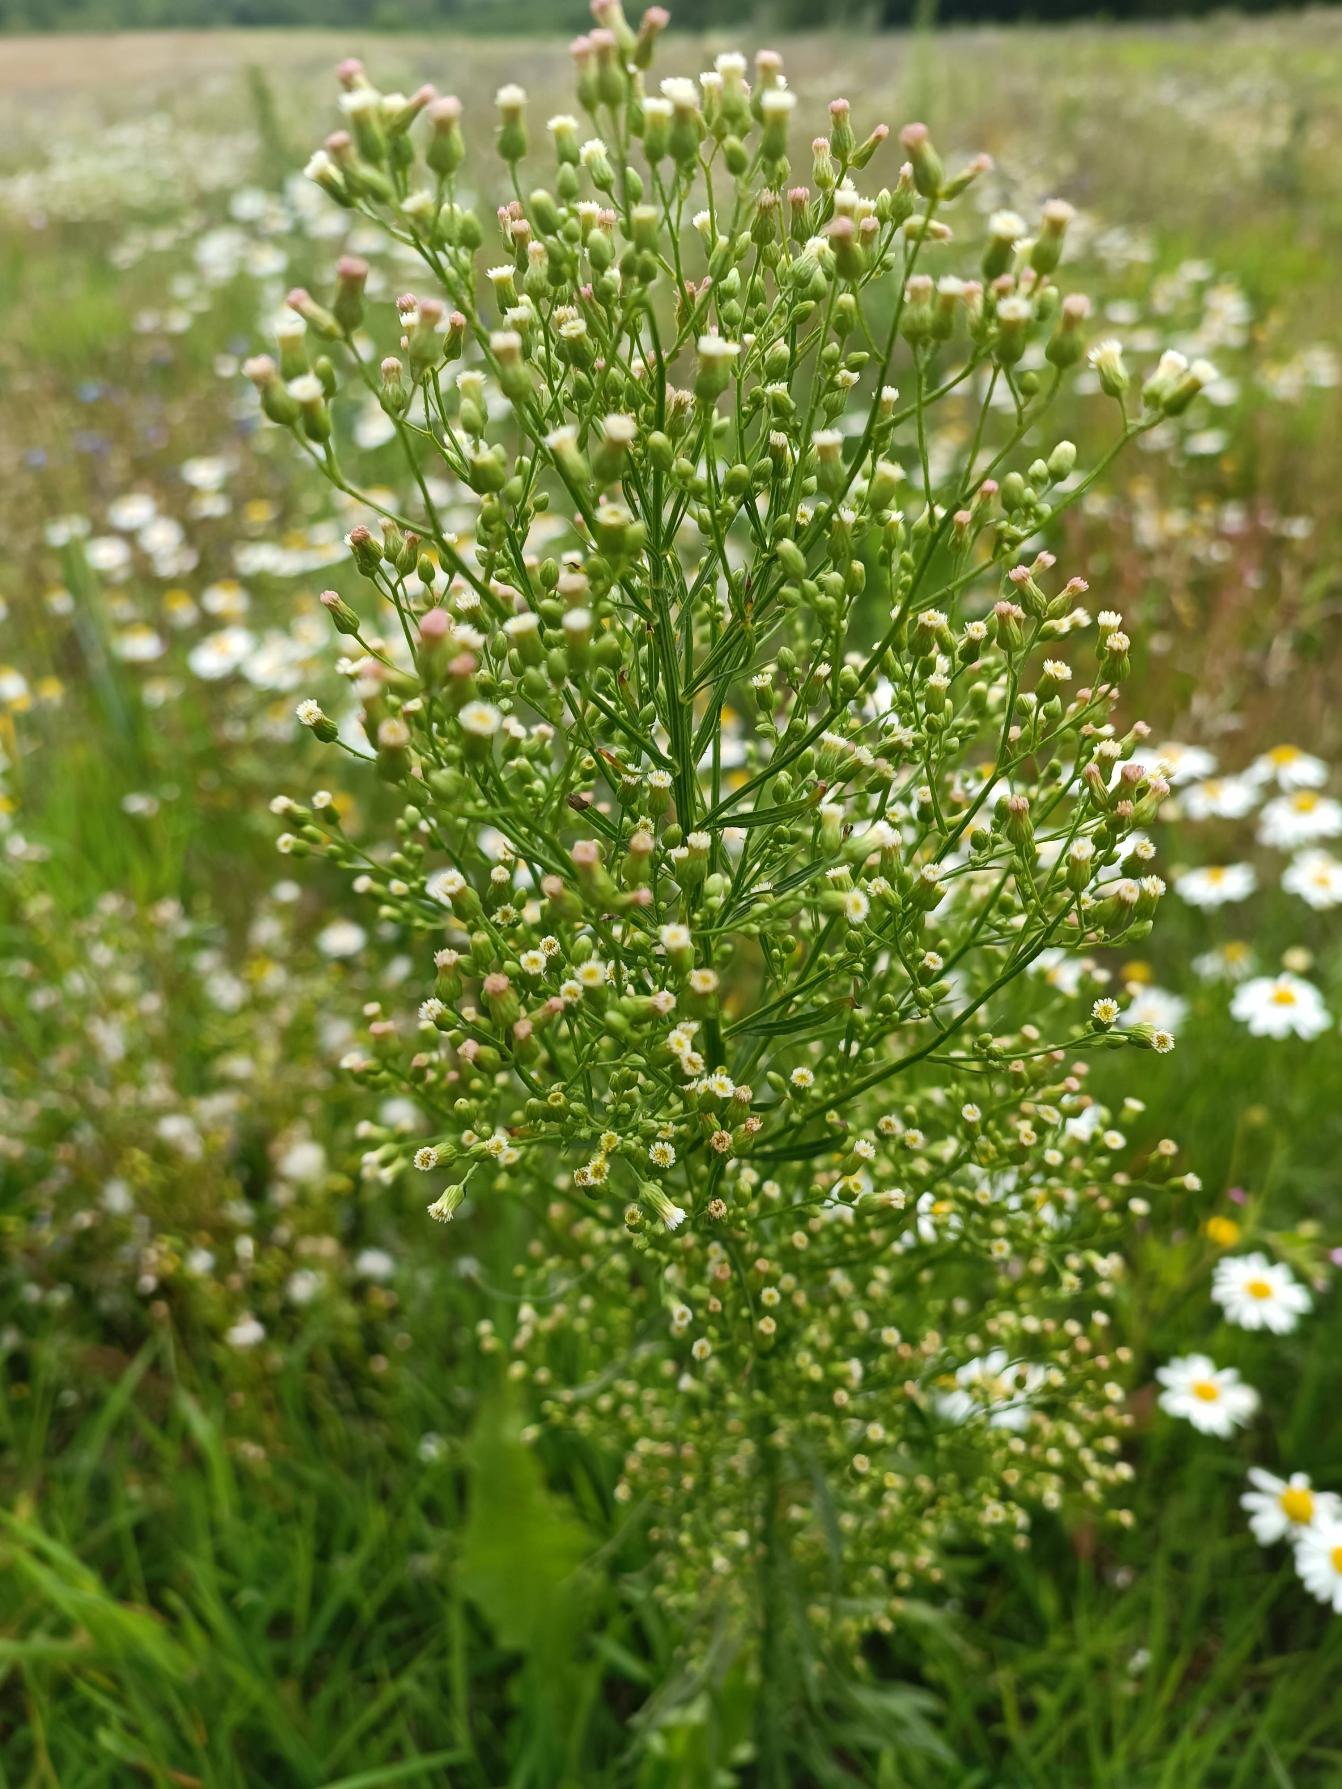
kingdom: Plantae
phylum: Tracheophyta
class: Magnoliopsida
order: Asterales
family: Asteraceae
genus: Erigeron
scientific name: Erigeron canadensis
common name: Kanadisk bakkestjerne
